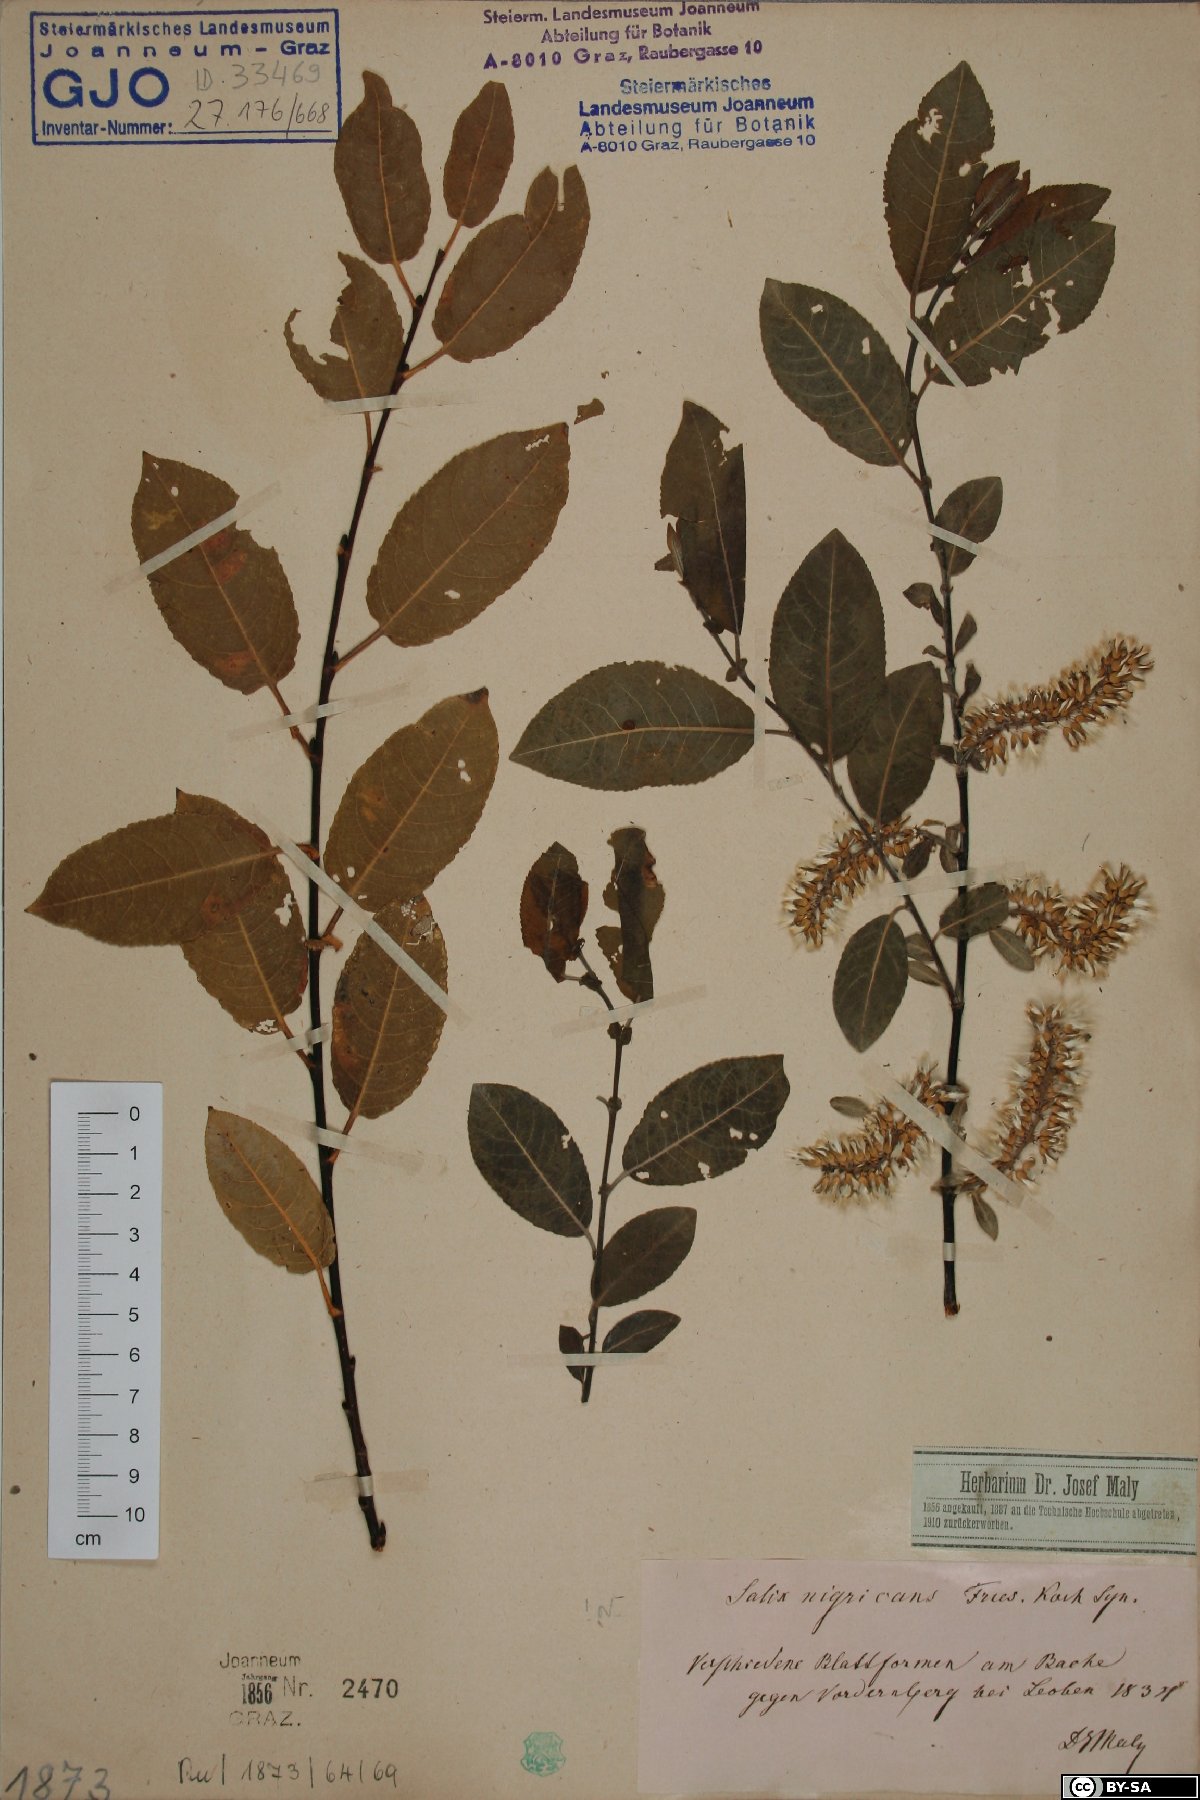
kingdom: Plantae
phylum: Tracheophyta
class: Magnoliopsida
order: Malpighiales
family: Salicaceae
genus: Salix
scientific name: Salix myrsinifolia
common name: Dark-leaved willow
